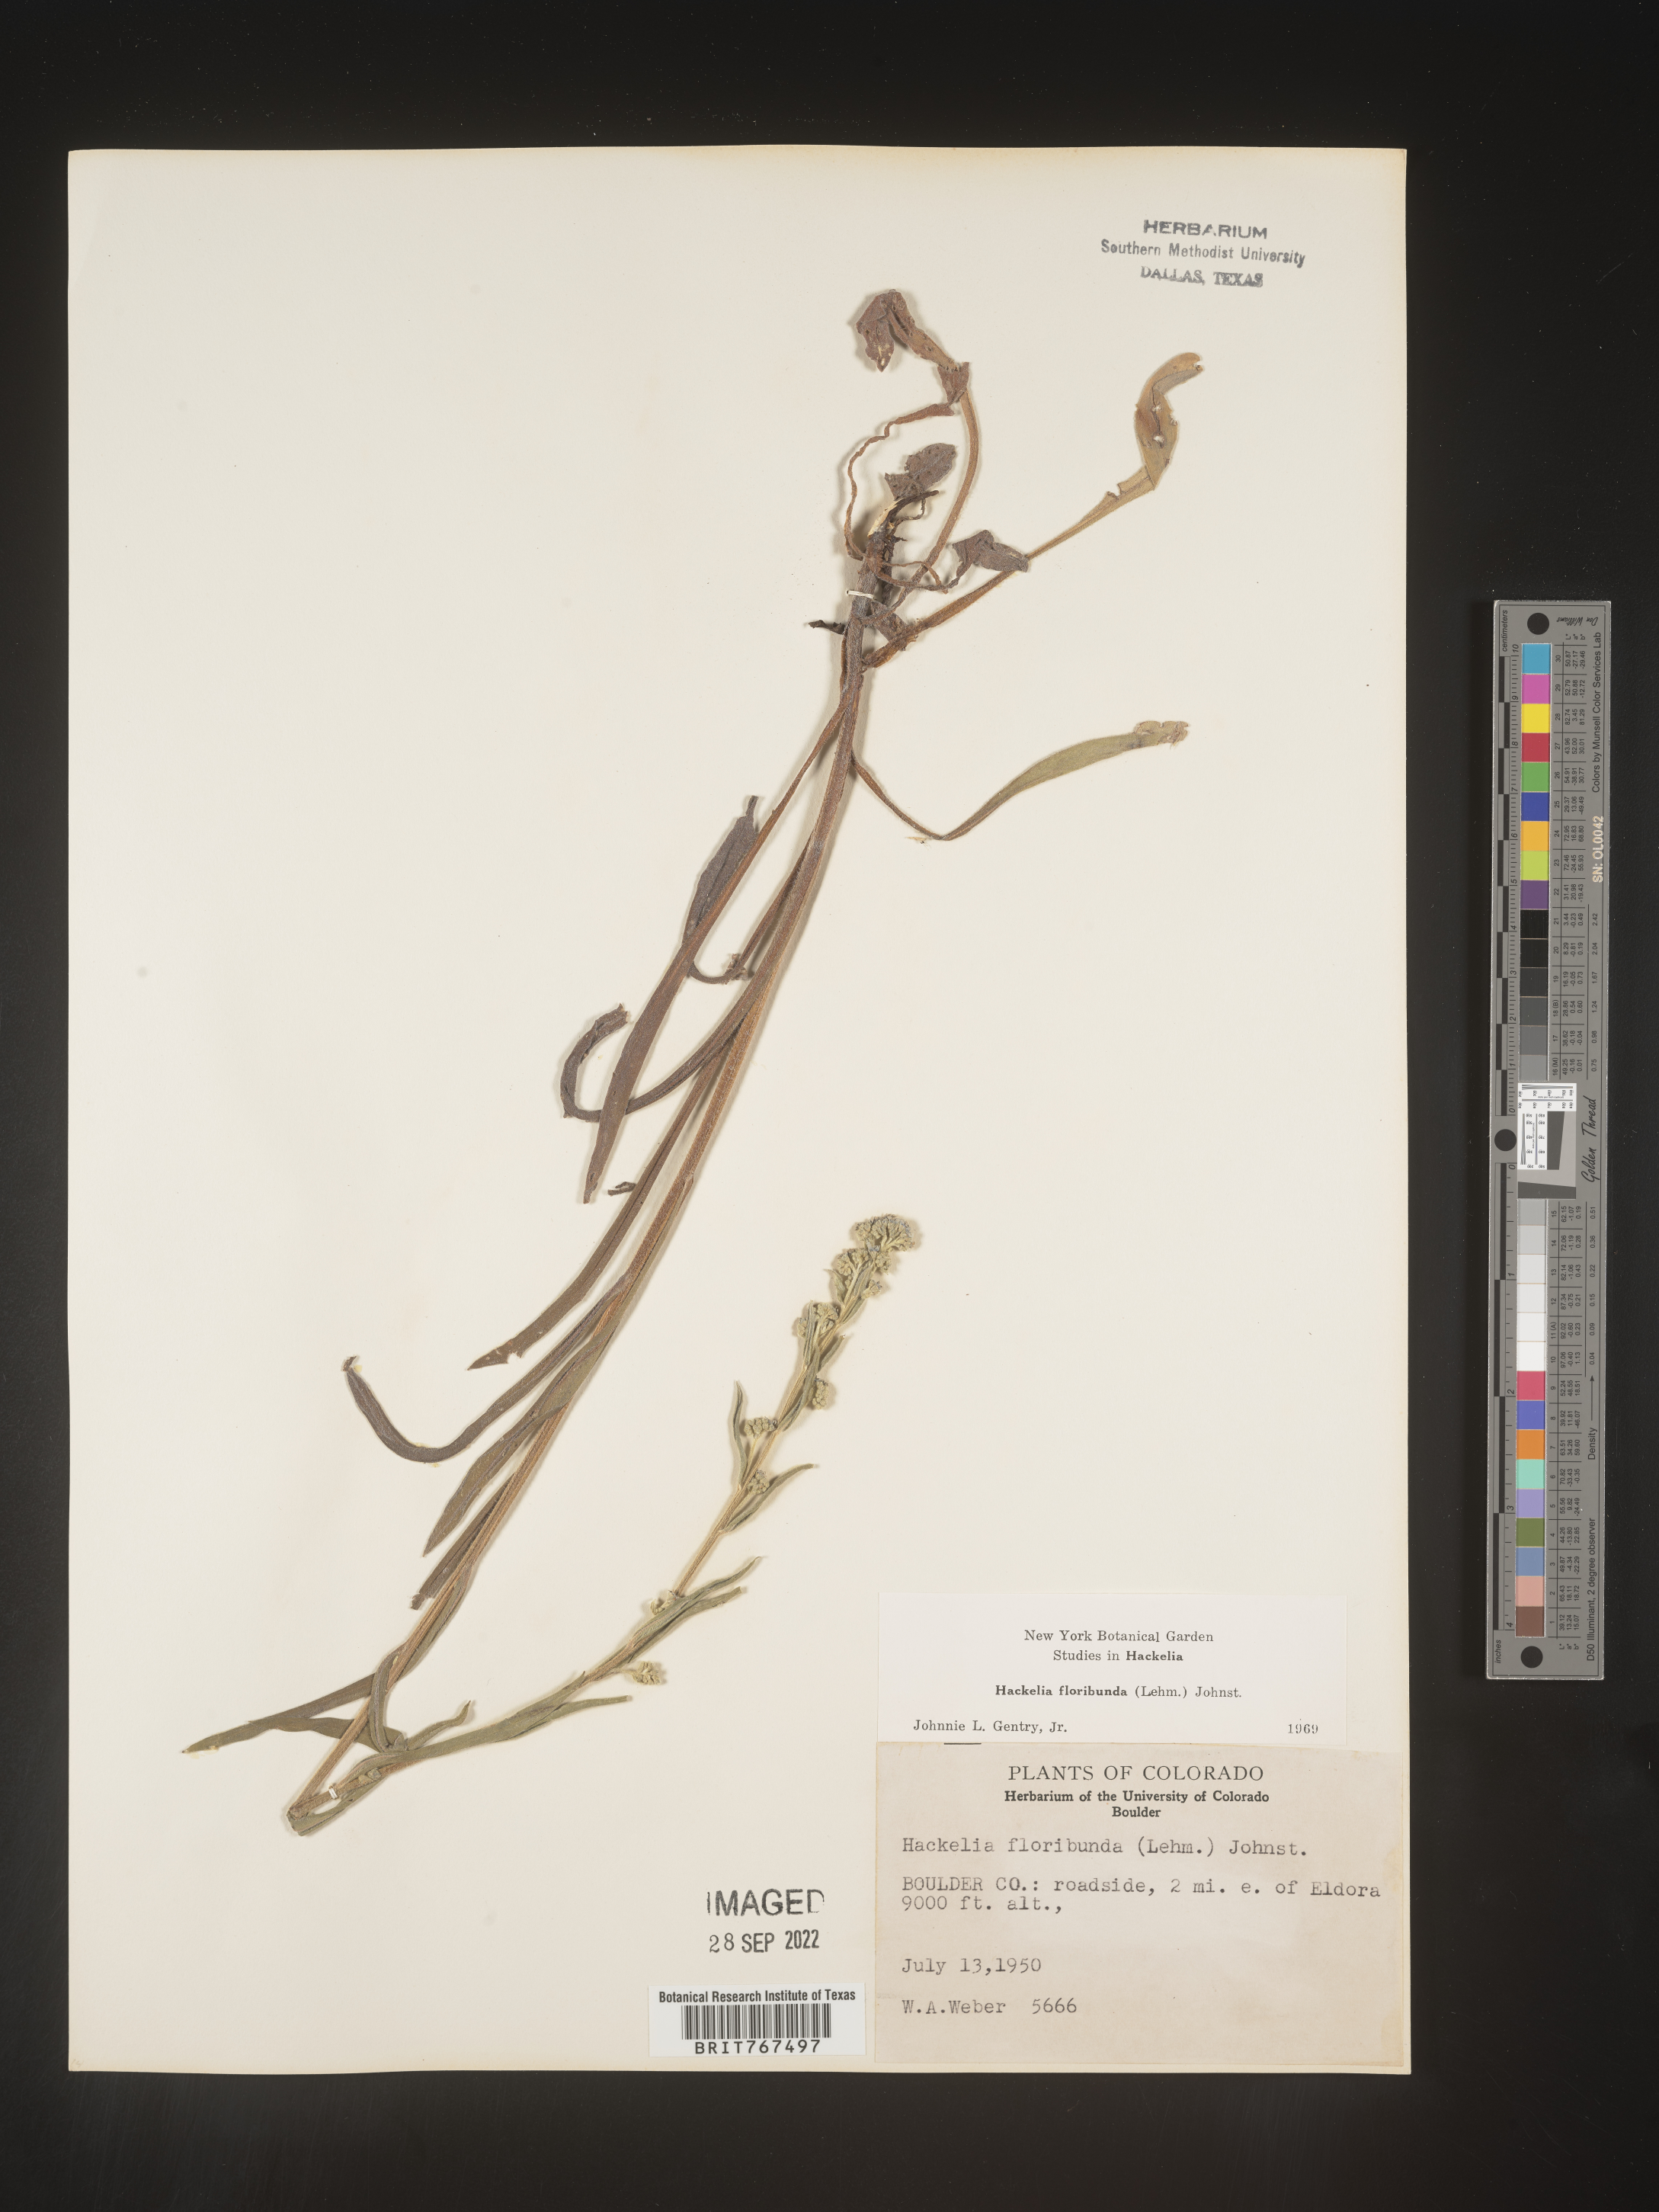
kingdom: Plantae
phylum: Tracheophyta
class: Magnoliopsida
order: Boraginales
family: Boraginaceae
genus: Hackelia
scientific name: Hackelia floribunda
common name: Large-flowered stickseed
